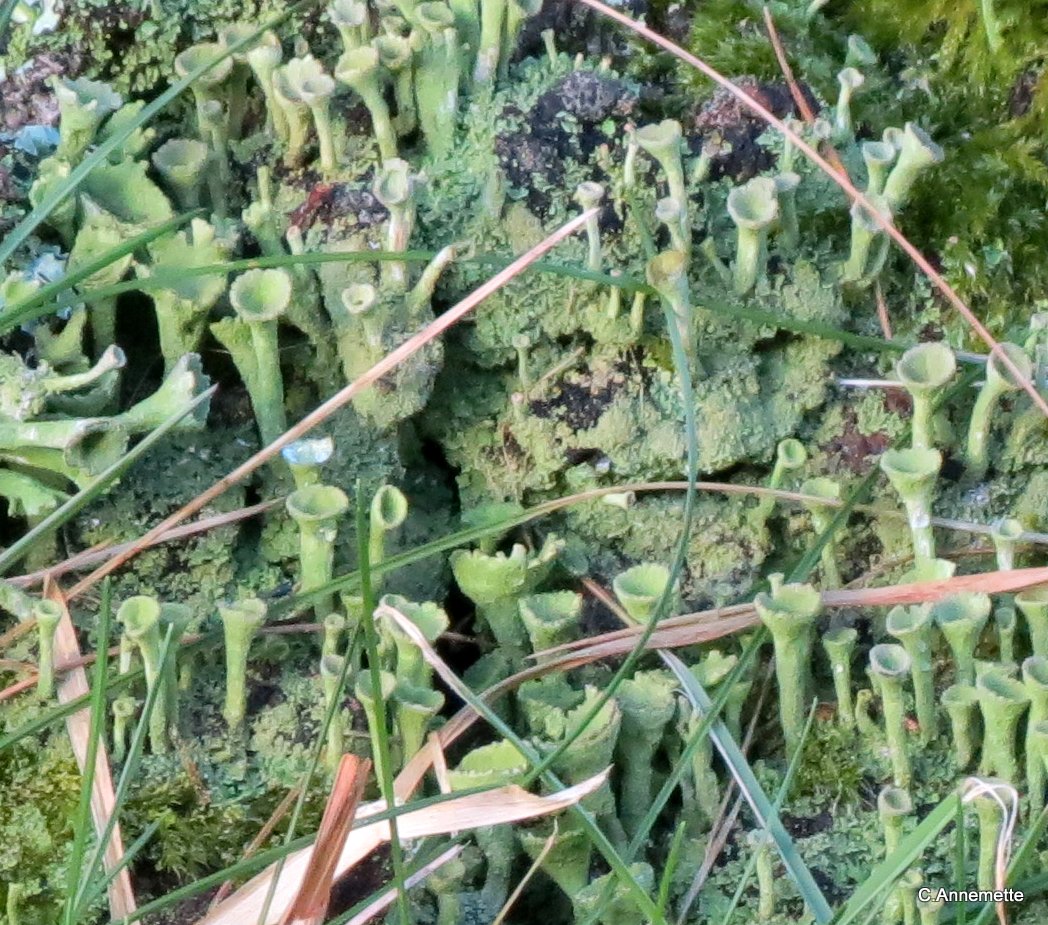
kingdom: Fungi
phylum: Ascomycota
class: Lecanoromycetes
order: Lecanorales
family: Cladoniaceae
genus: Cladonia
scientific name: Cladonia fimbriata
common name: bleggrøn bægerlav
